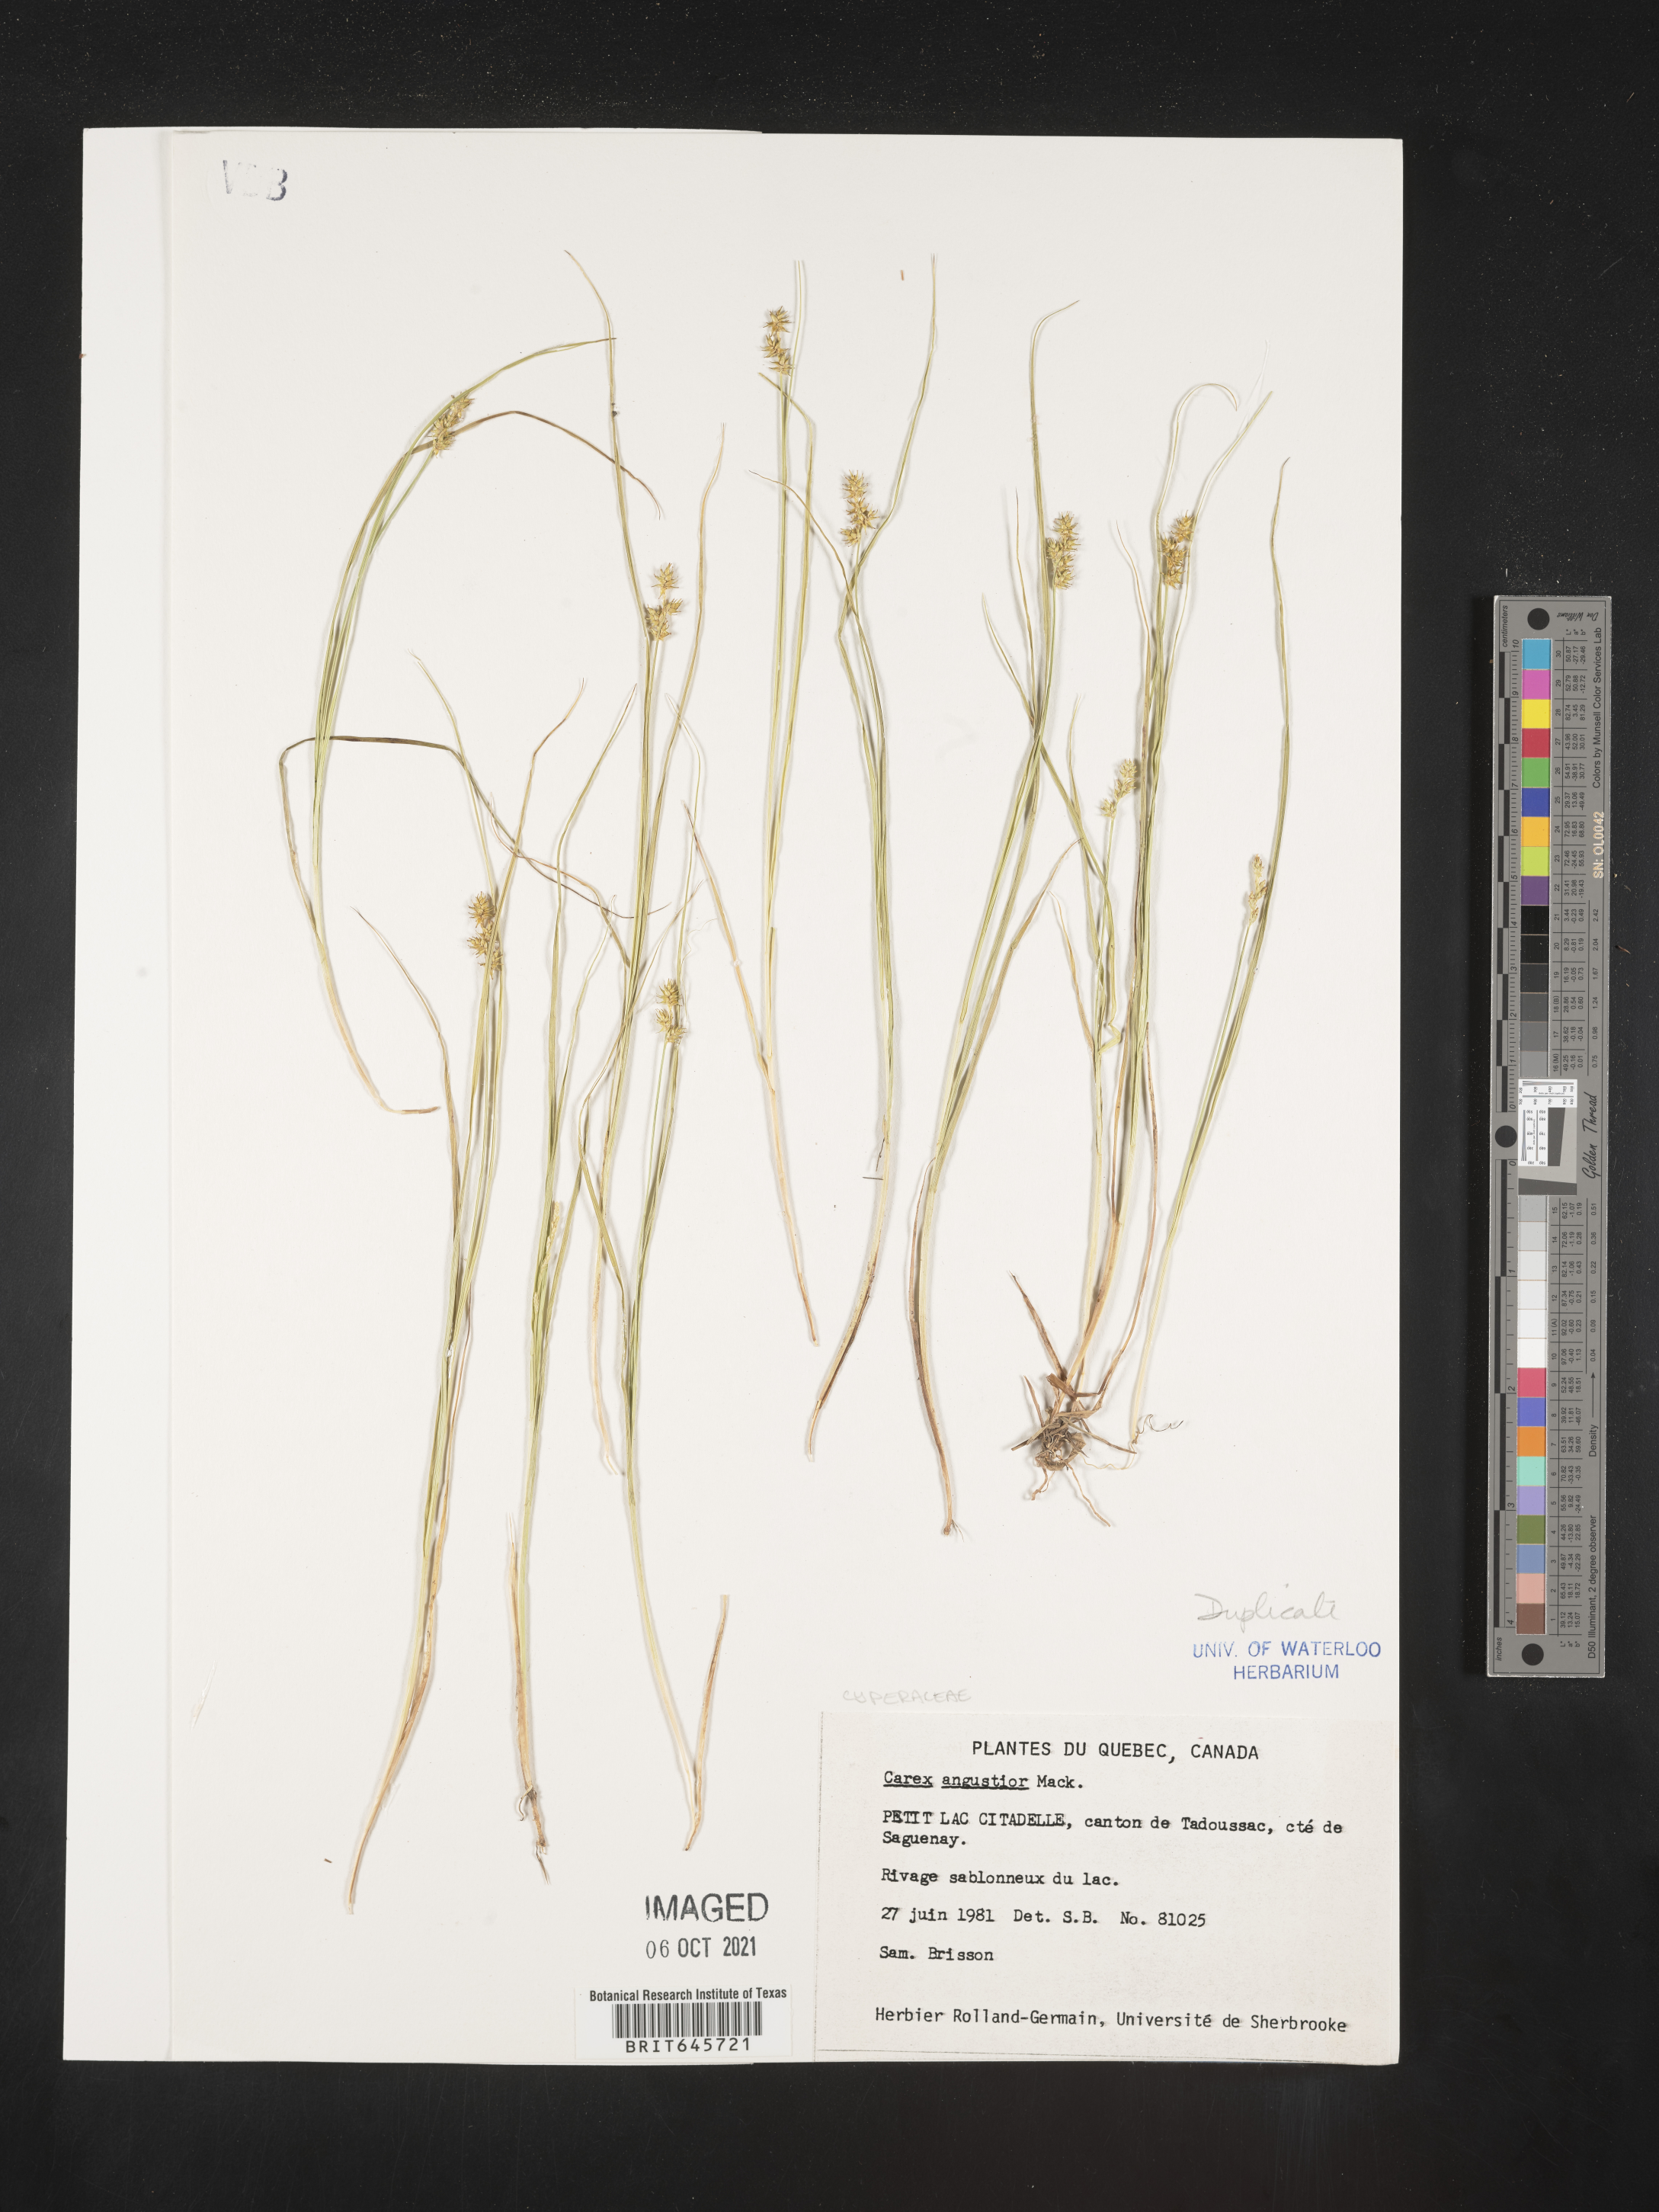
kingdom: Plantae
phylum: Tracheophyta
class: Liliopsida
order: Poales
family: Cyperaceae
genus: Carex
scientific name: Carex echinata
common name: Star sedge
